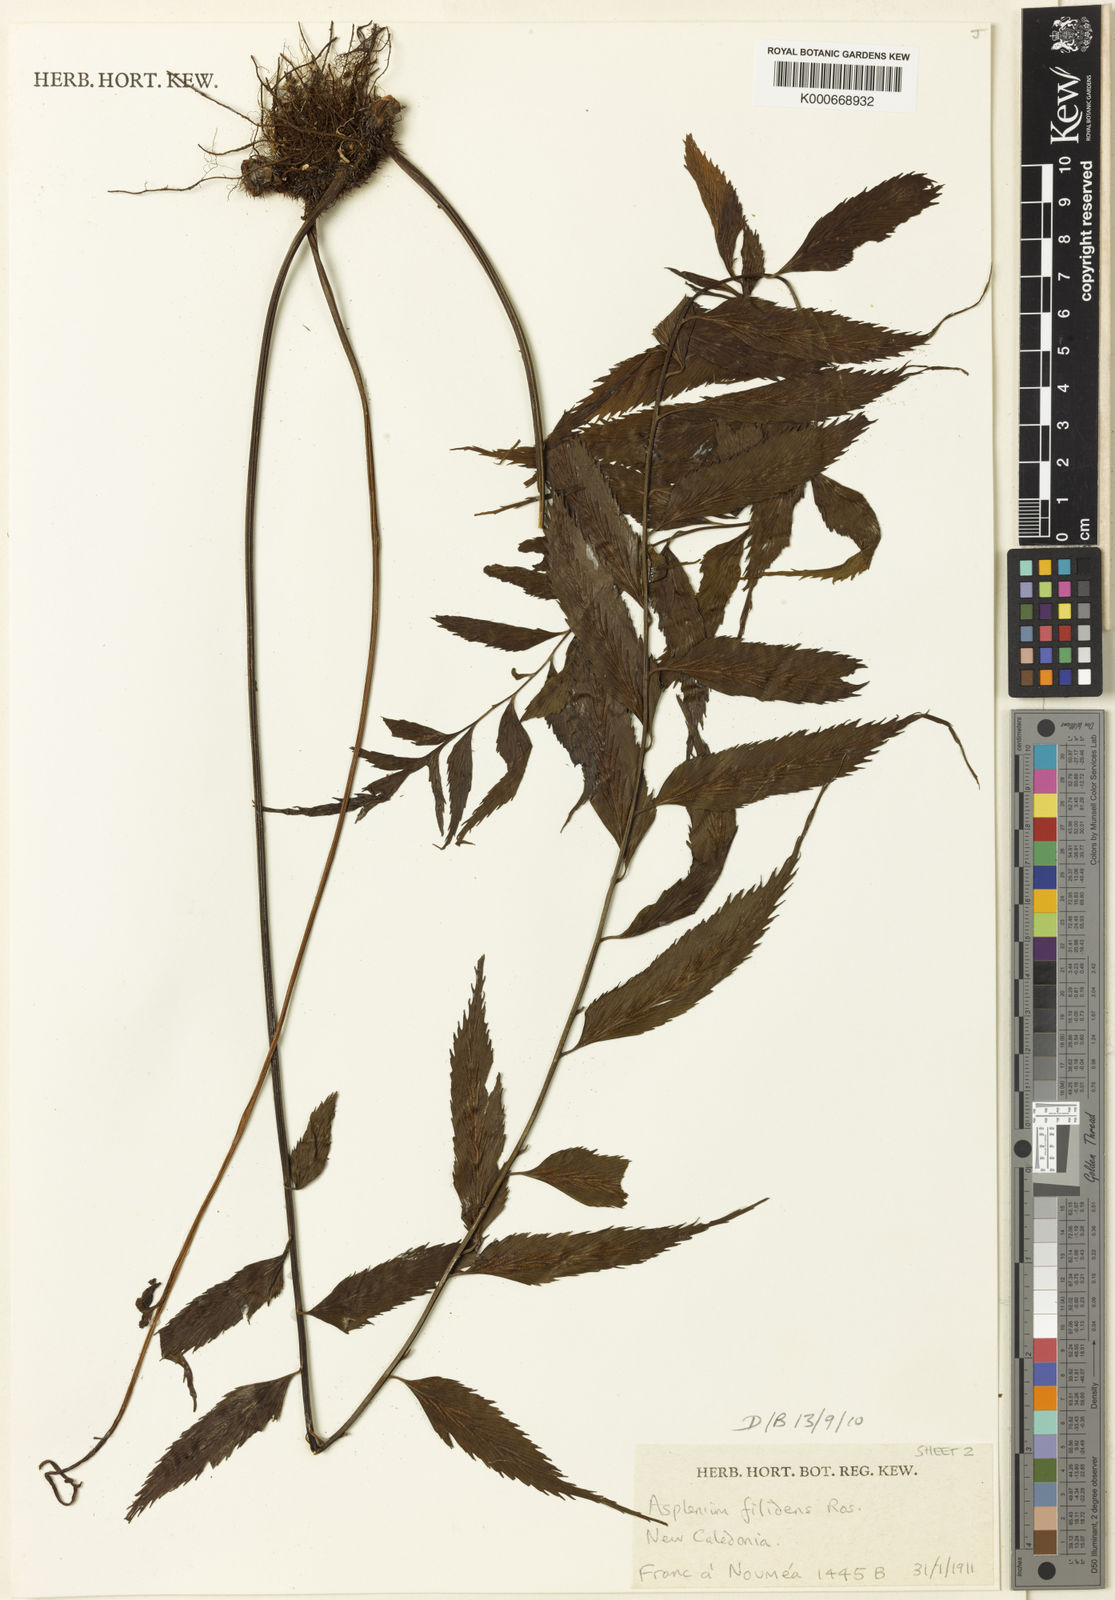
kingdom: Plantae
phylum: Tracheophyta
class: Polypodiopsida
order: Polypodiales
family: Aspleniaceae
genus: Asplenium
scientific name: Asplenium filidens
